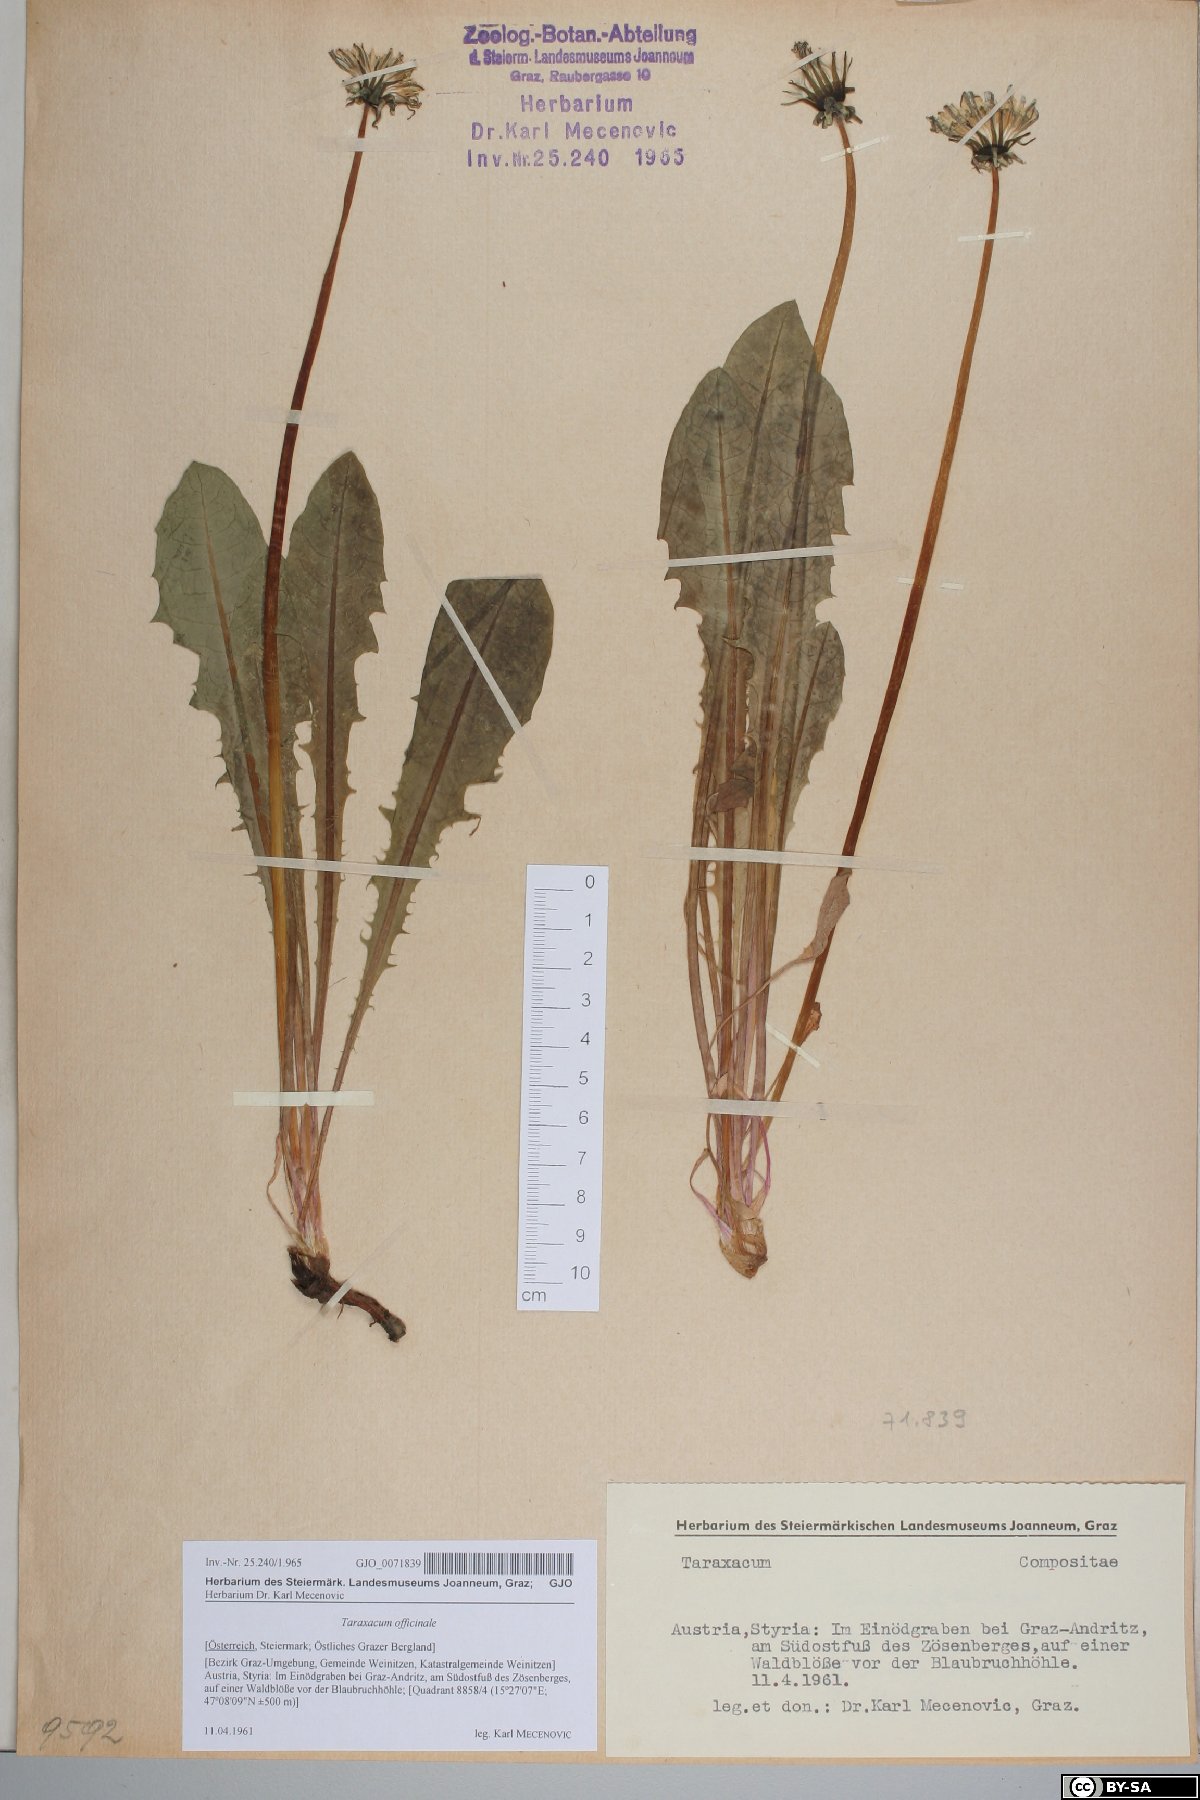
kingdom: Plantae
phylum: Tracheophyta
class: Magnoliopsida
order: Asterales
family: Asteraceae
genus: Taraxacum
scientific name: Taraxacum officinale
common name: Common dandelion
